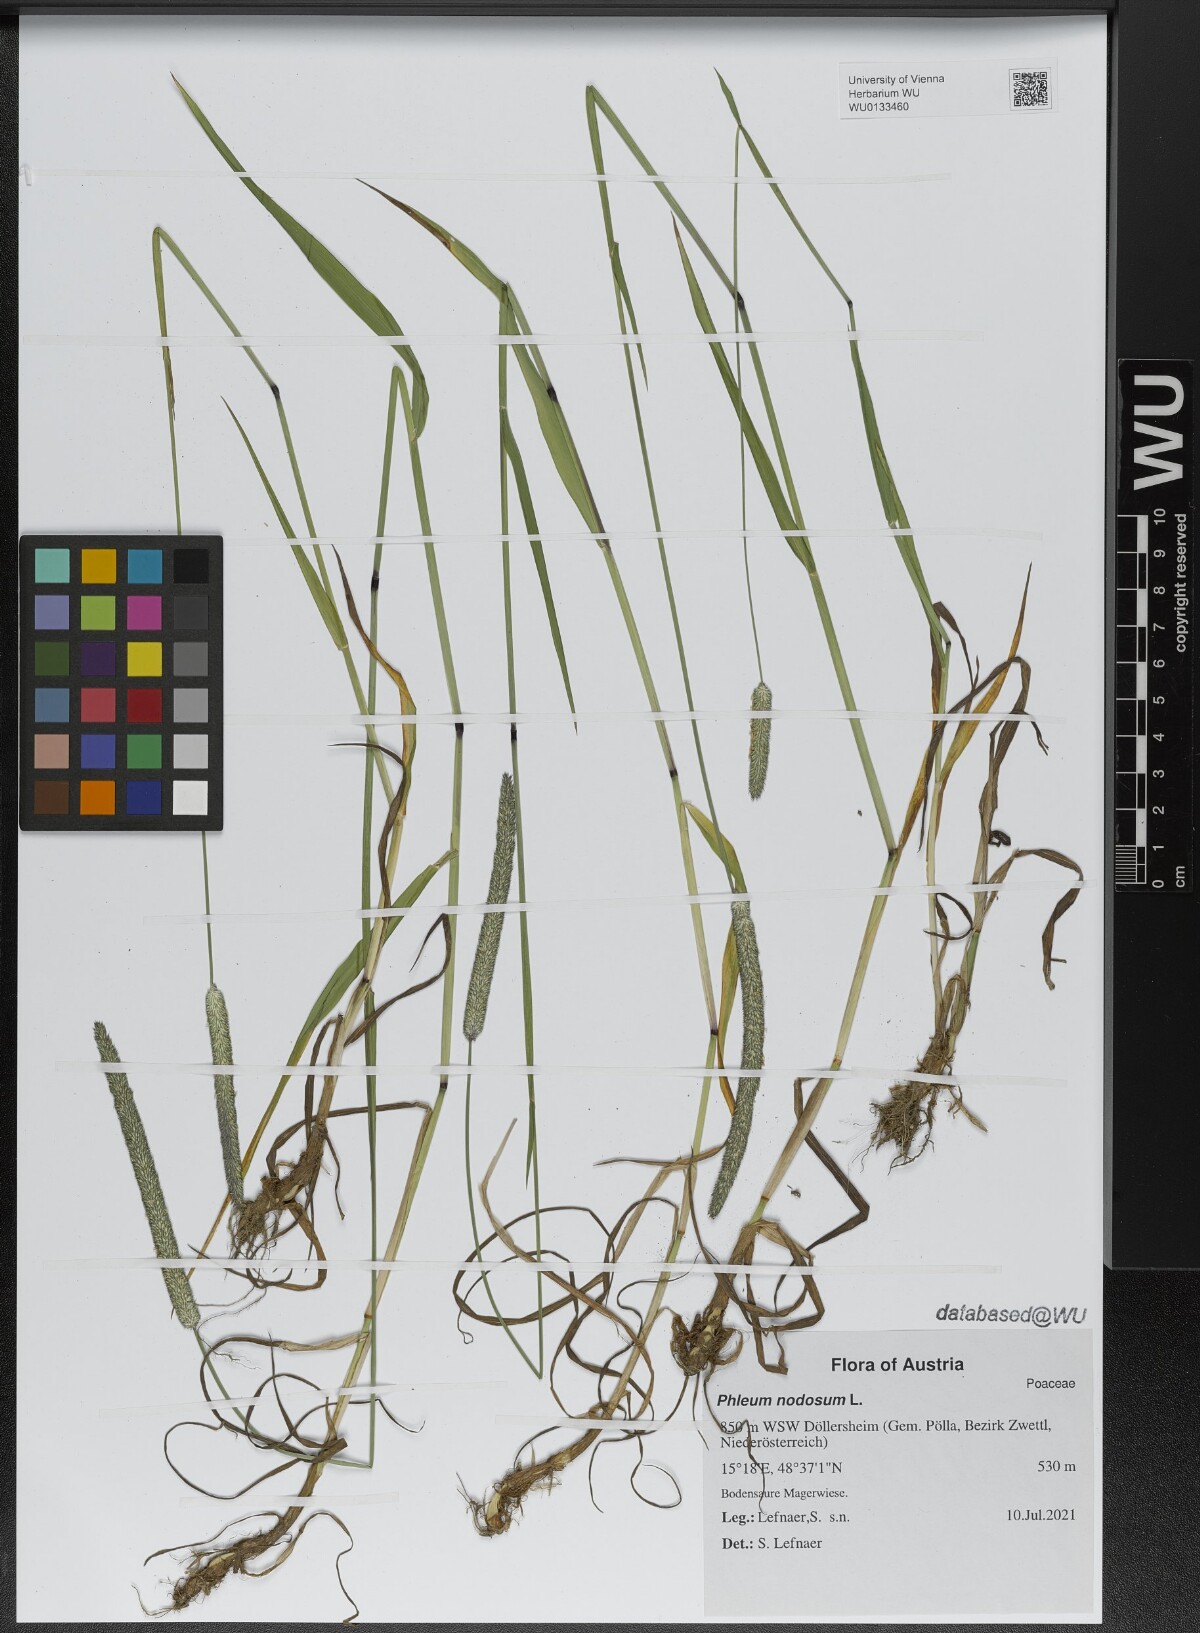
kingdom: Plantae
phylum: Tracheophyta
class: Liliopsida
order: Poales
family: Poaceae
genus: Phleum
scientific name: Phleum pratense
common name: Timothy grass
